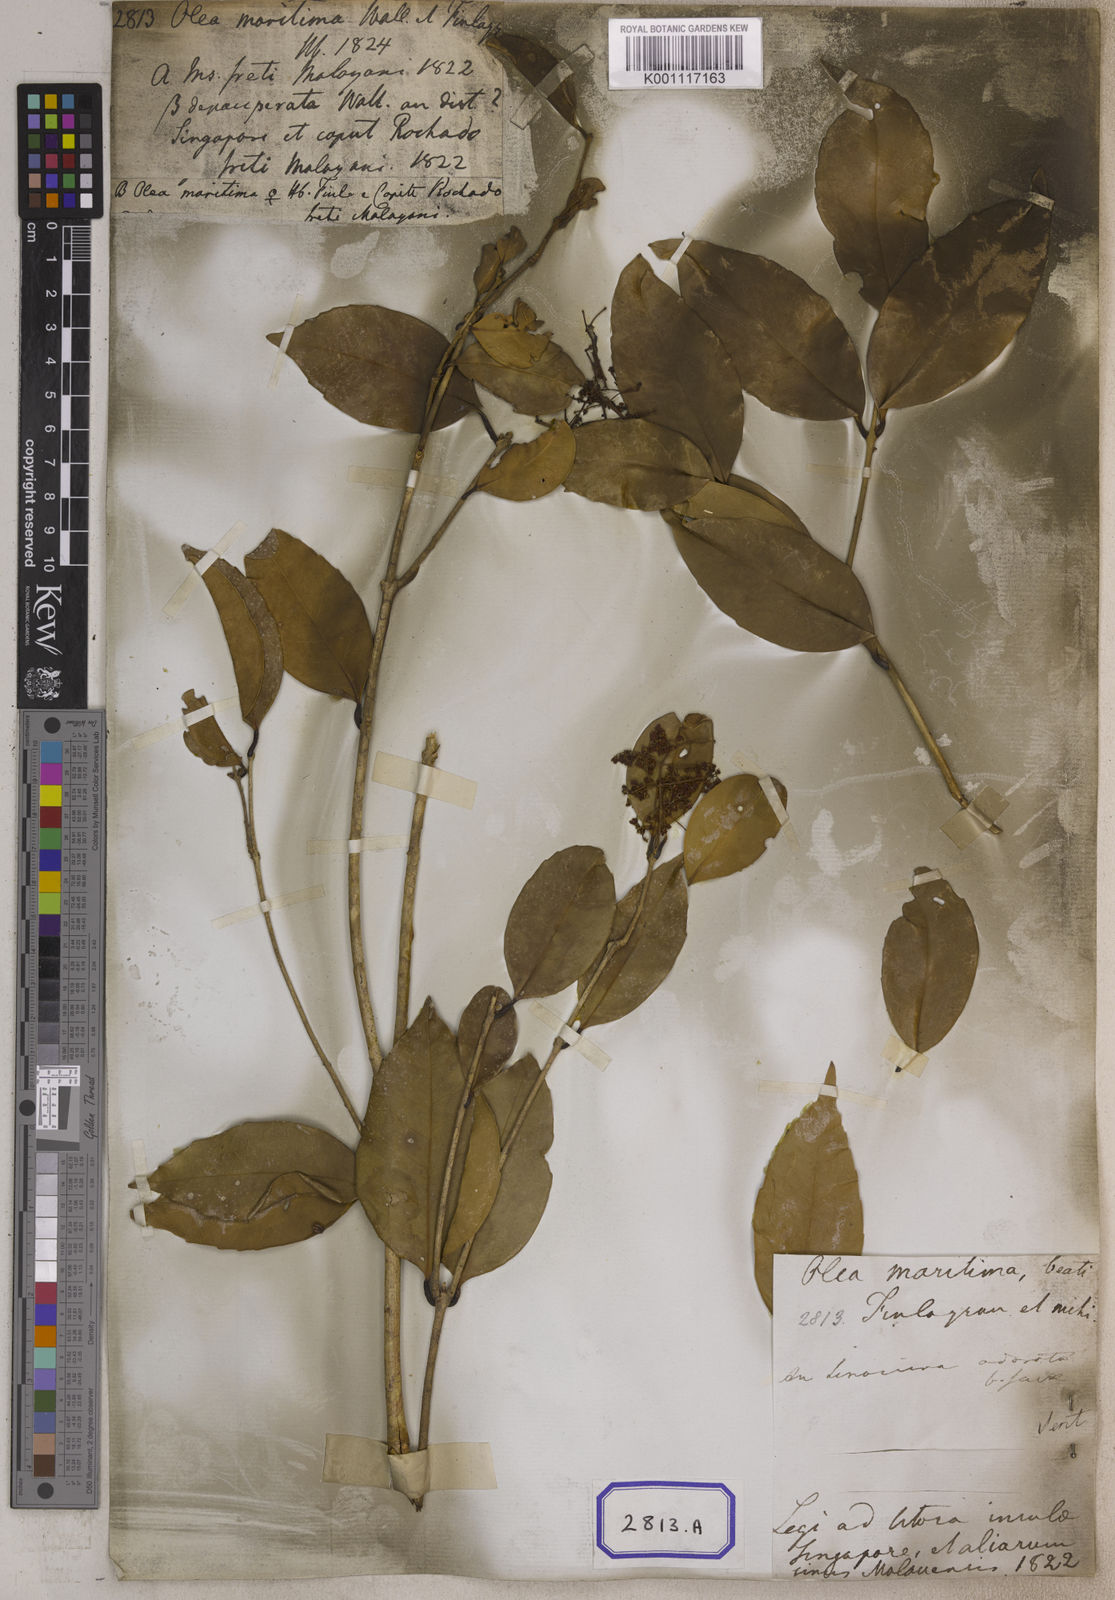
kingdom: Plantae
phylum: Tracheophyta
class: Magnoliopsida
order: Lamiales
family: Oleaceae
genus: Olea
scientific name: Olea
